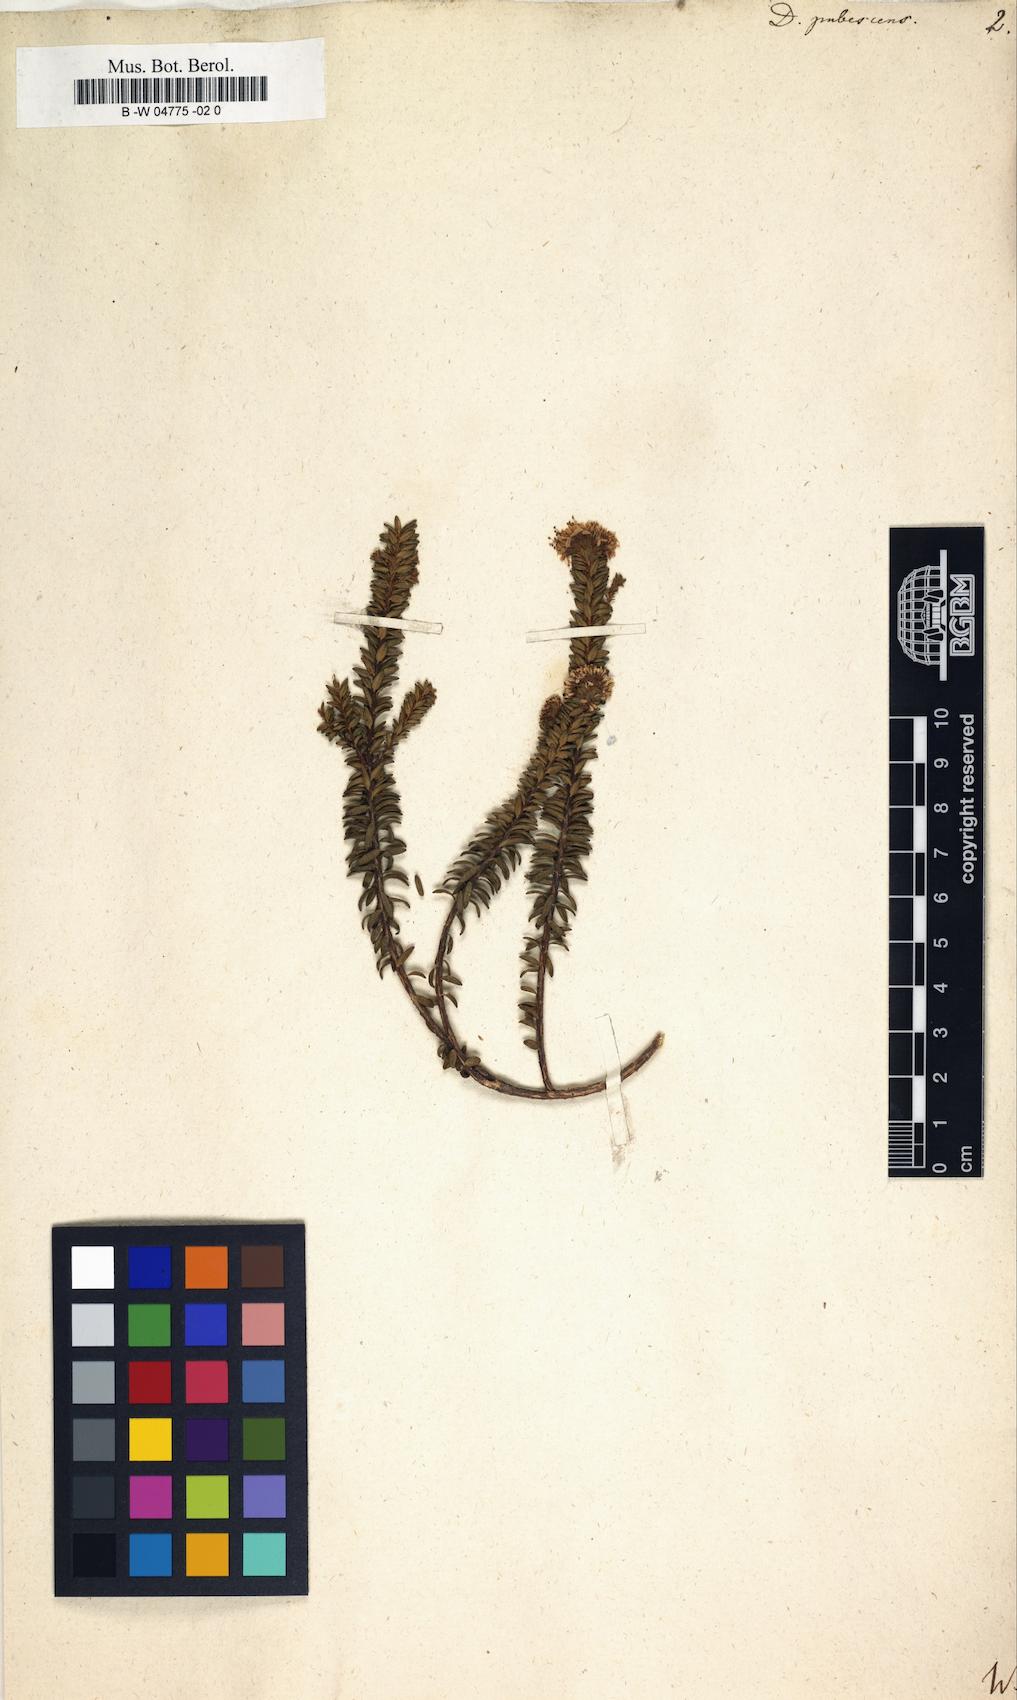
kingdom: Plantae
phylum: Tracheophyta
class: Magnoliopsida
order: Sapindales
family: Rutaceae
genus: Agathosma
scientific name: Agathosma corymbosa
